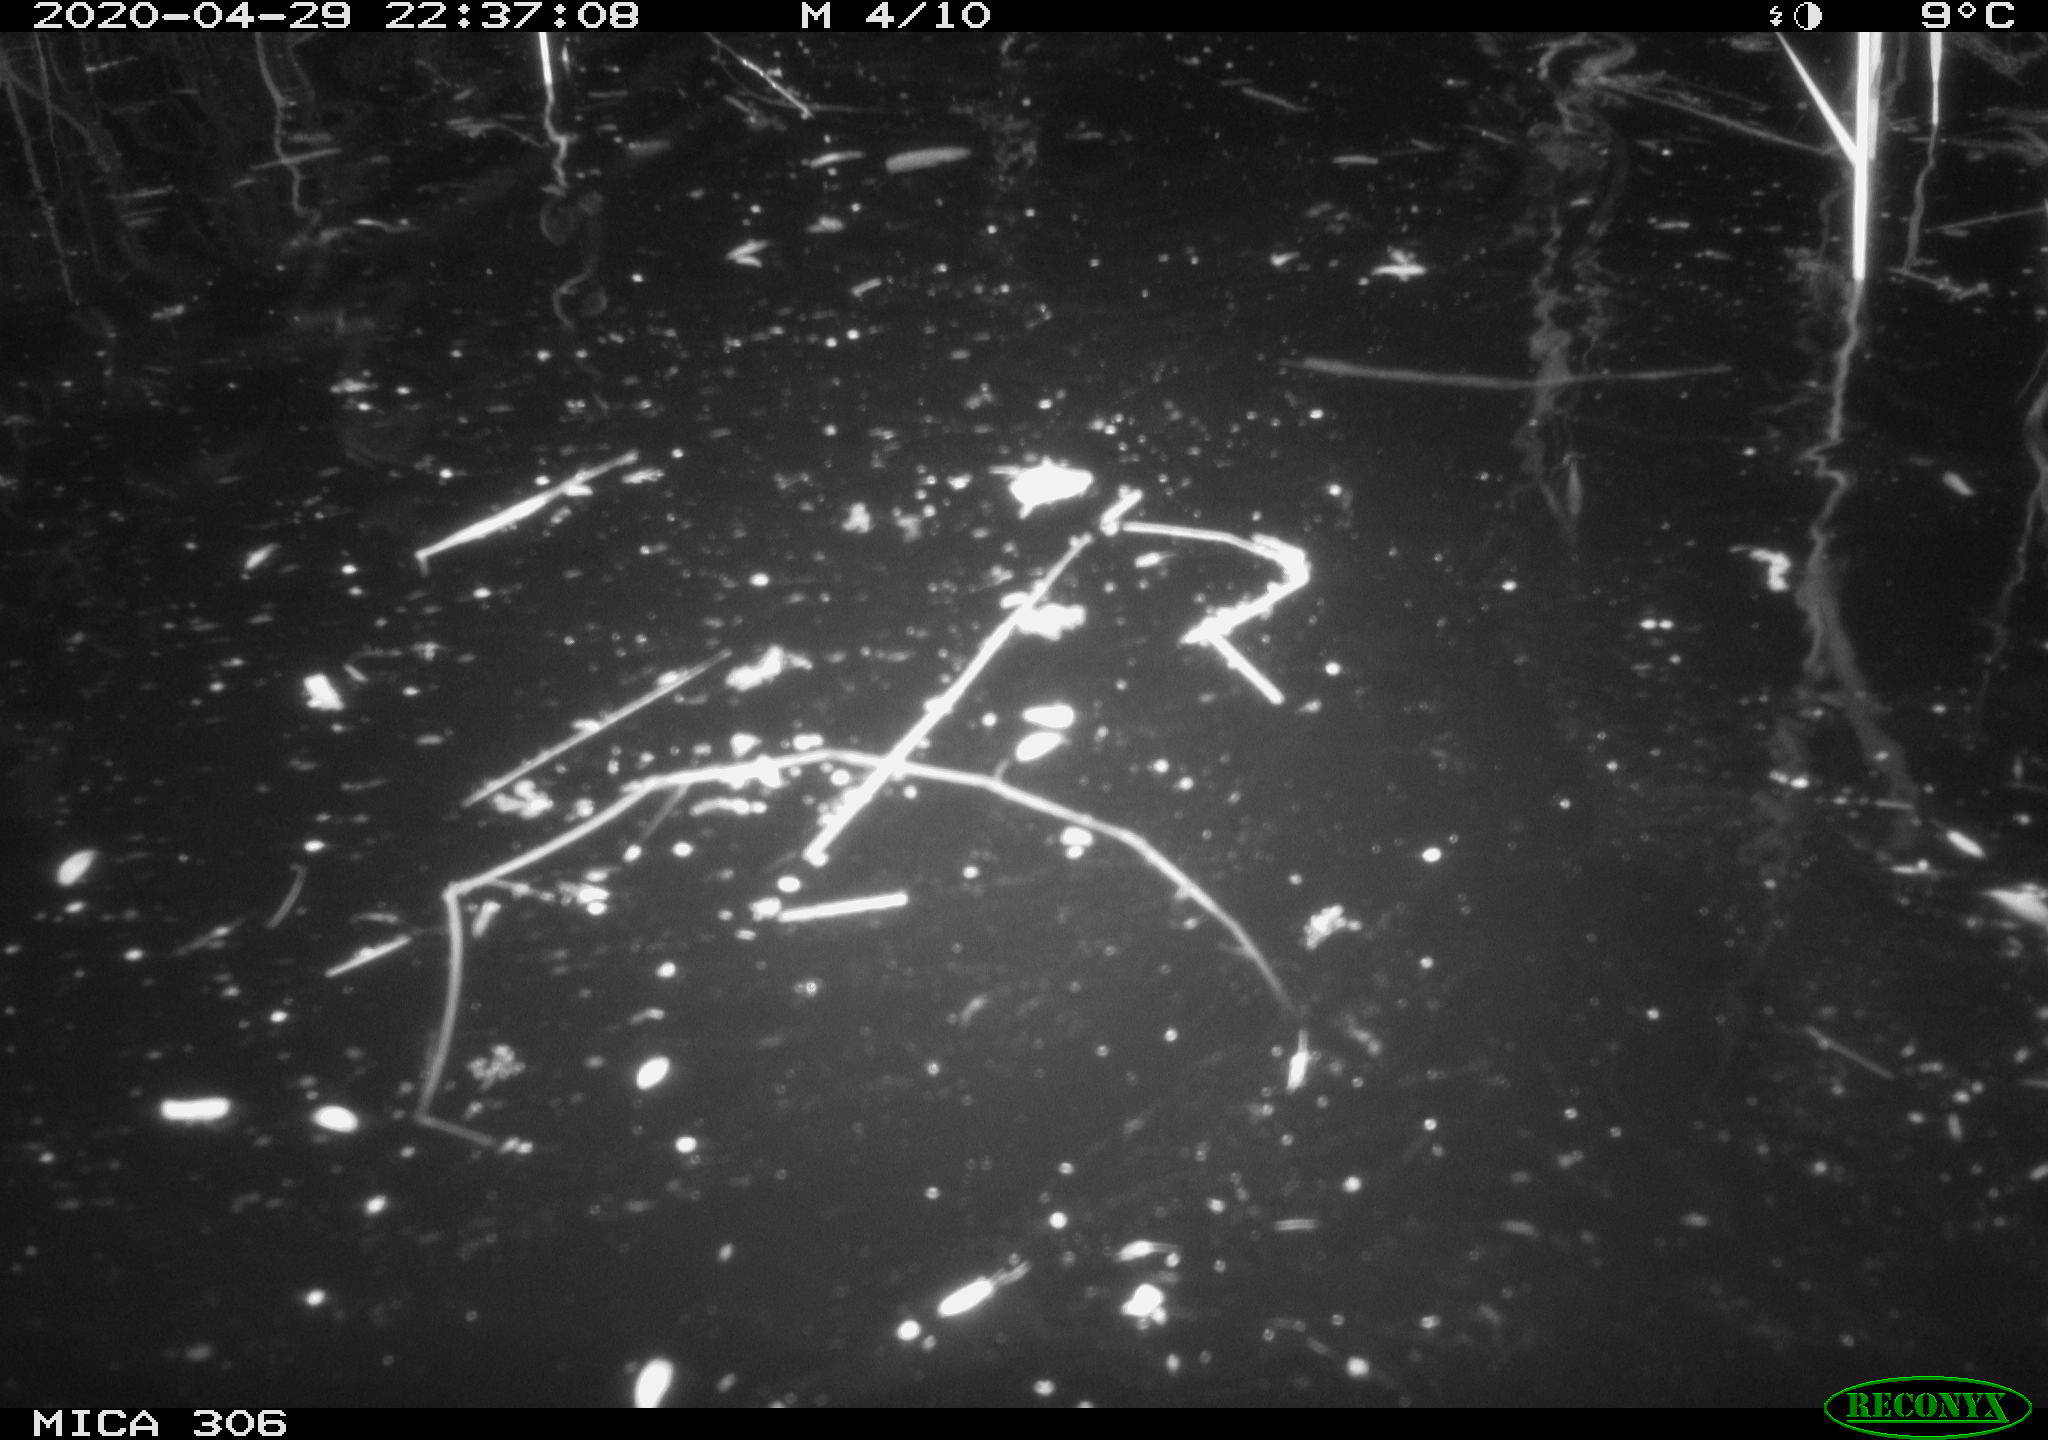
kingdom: Animalia
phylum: Chordata
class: Mammalia
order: Rodentia
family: Cricetidae
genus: Ondatra
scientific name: Ondatra zibethicus
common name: Muskrat
